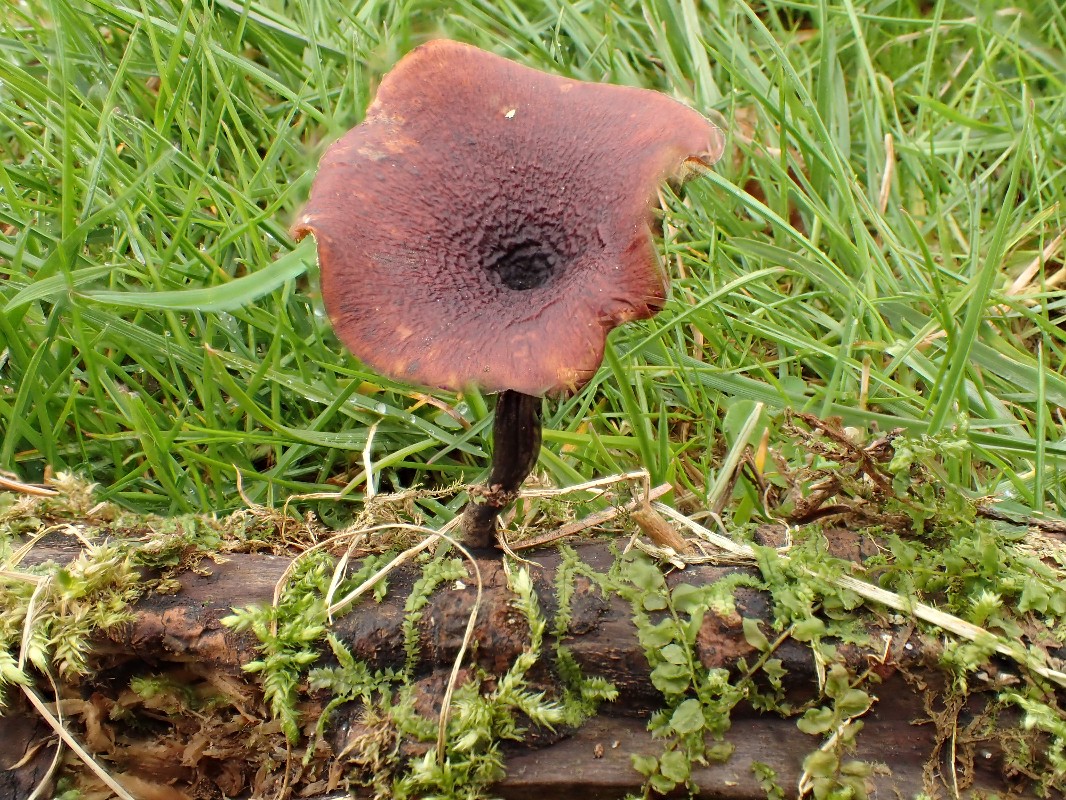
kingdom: Fungi
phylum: Basidiomycota
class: Agaricomycetes
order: Polyporales
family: Polyporaceae
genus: Picipes
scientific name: Picipes tubaeformis
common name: trompet-stilkporesvamp
